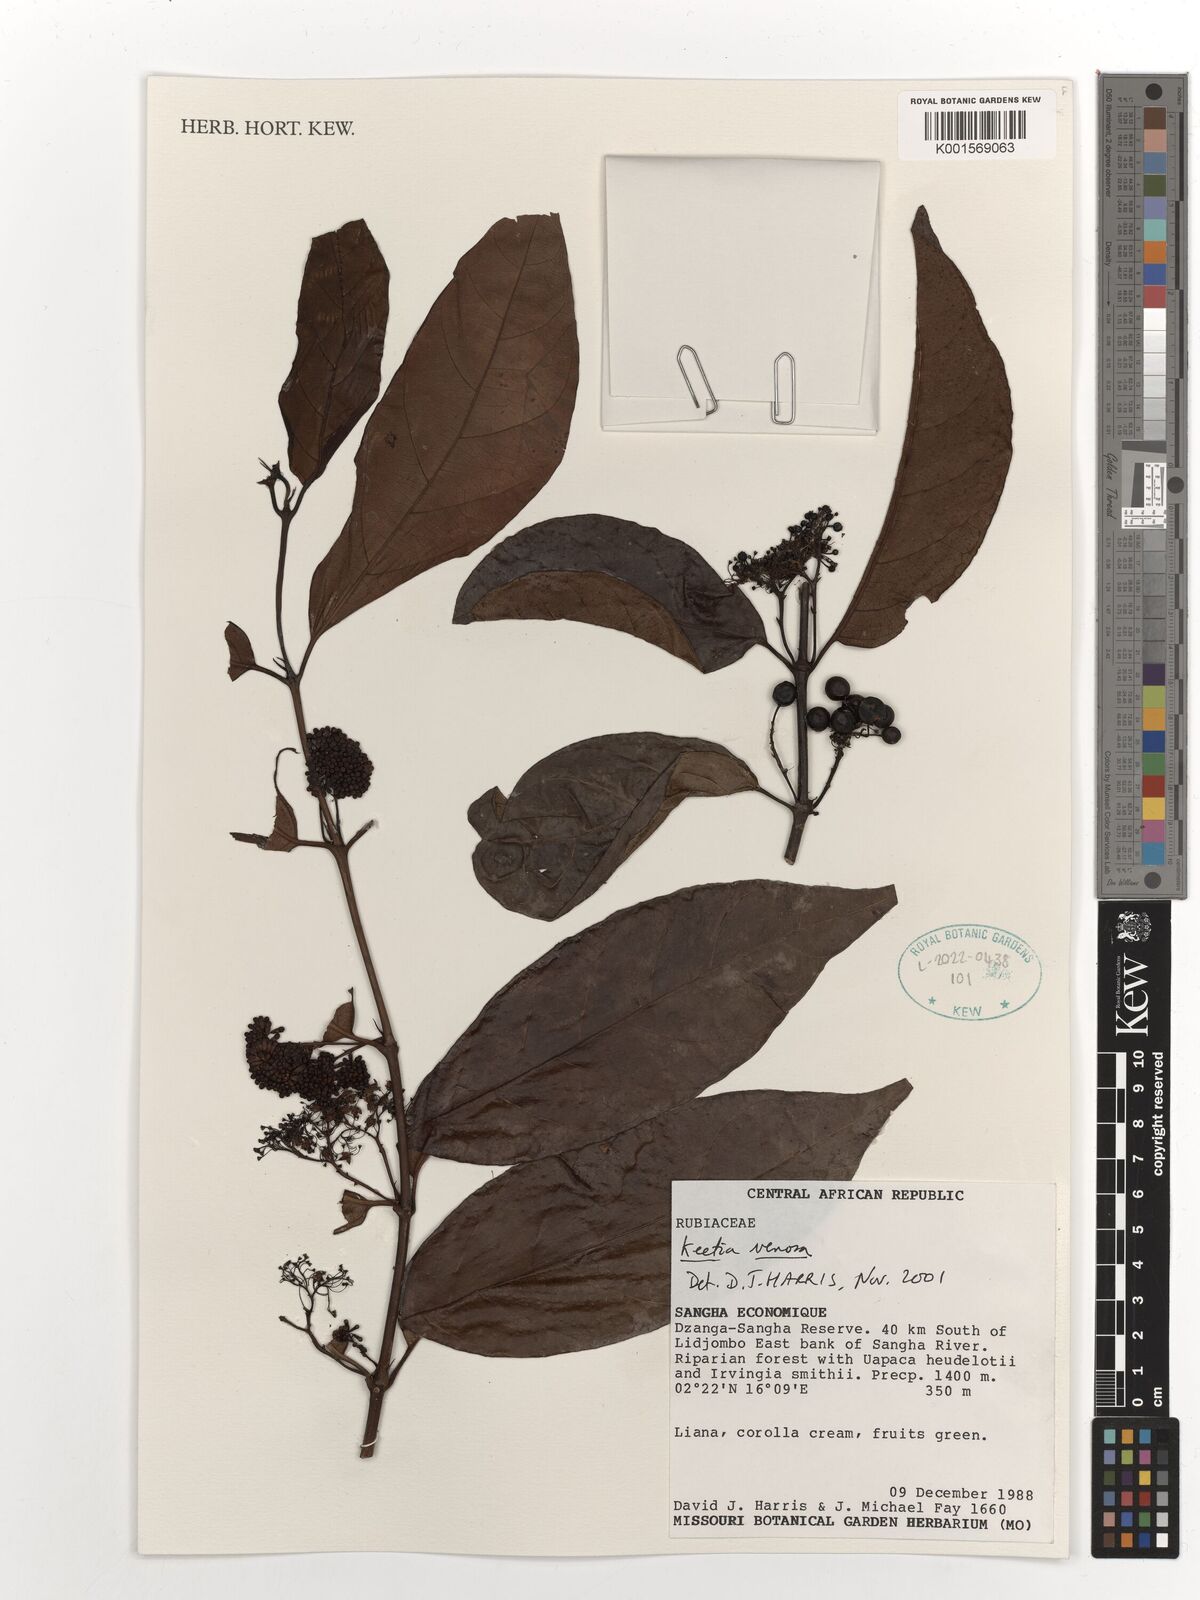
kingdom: Plantae
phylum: Tracheophyta
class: Magnoliopsida
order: Gentianales
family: Rubiaceae
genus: Keetia
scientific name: Keetia venosa
